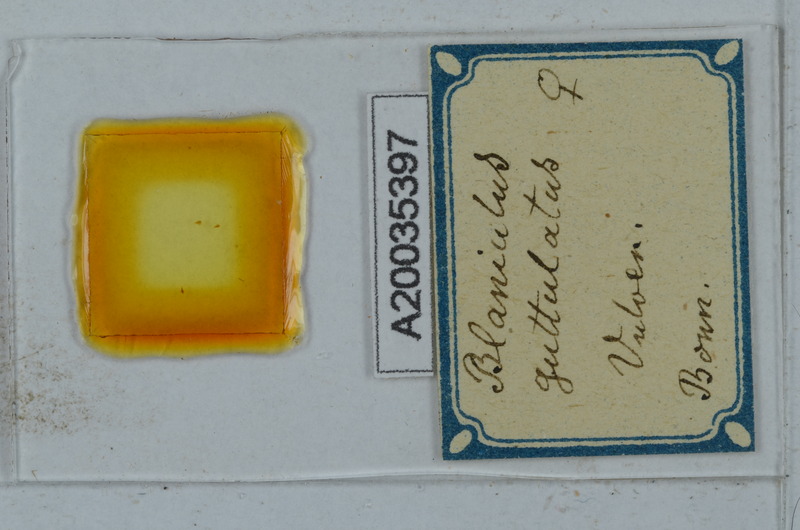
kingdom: Animalia
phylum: Arthropoda
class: Diplopoda
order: Julida
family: Blaniulidae
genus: Nopoiulus
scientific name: Nopoiulus palmatus
